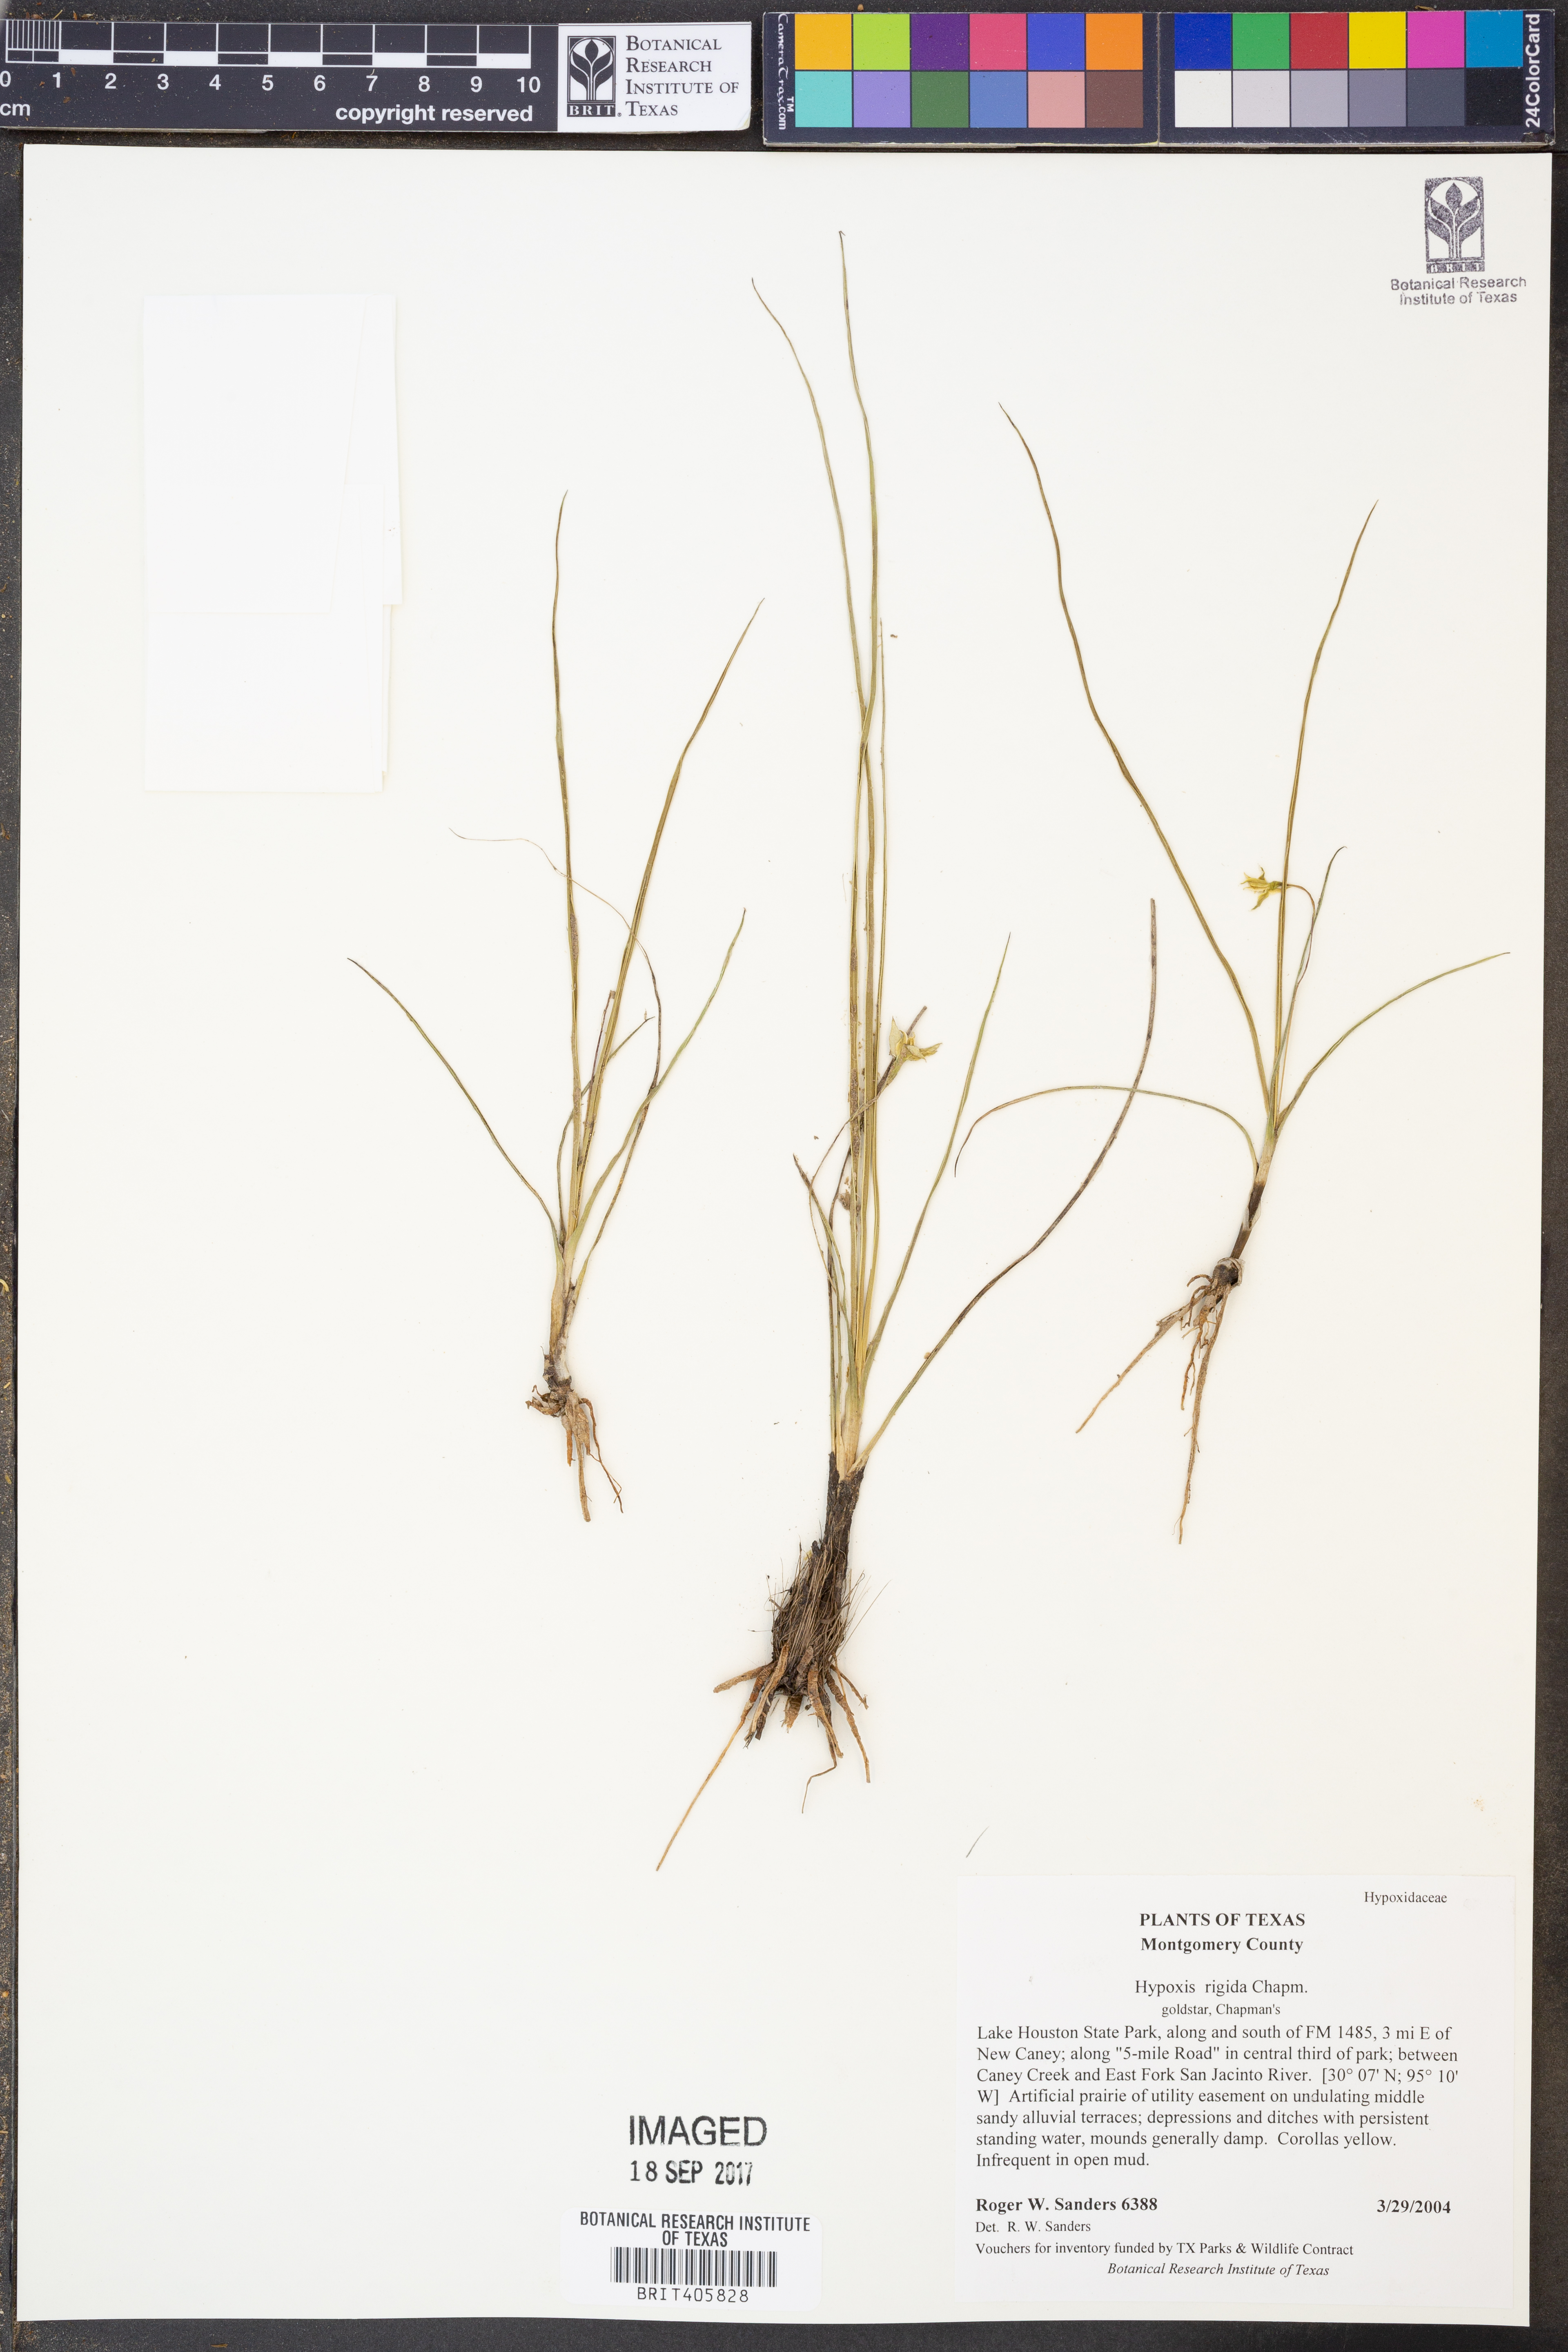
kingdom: Plantae
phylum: Tracheophyta
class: Liliopsida
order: Asparagales
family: Hypoxidaceae
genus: Hypoxis
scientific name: Hypoxis rigida
